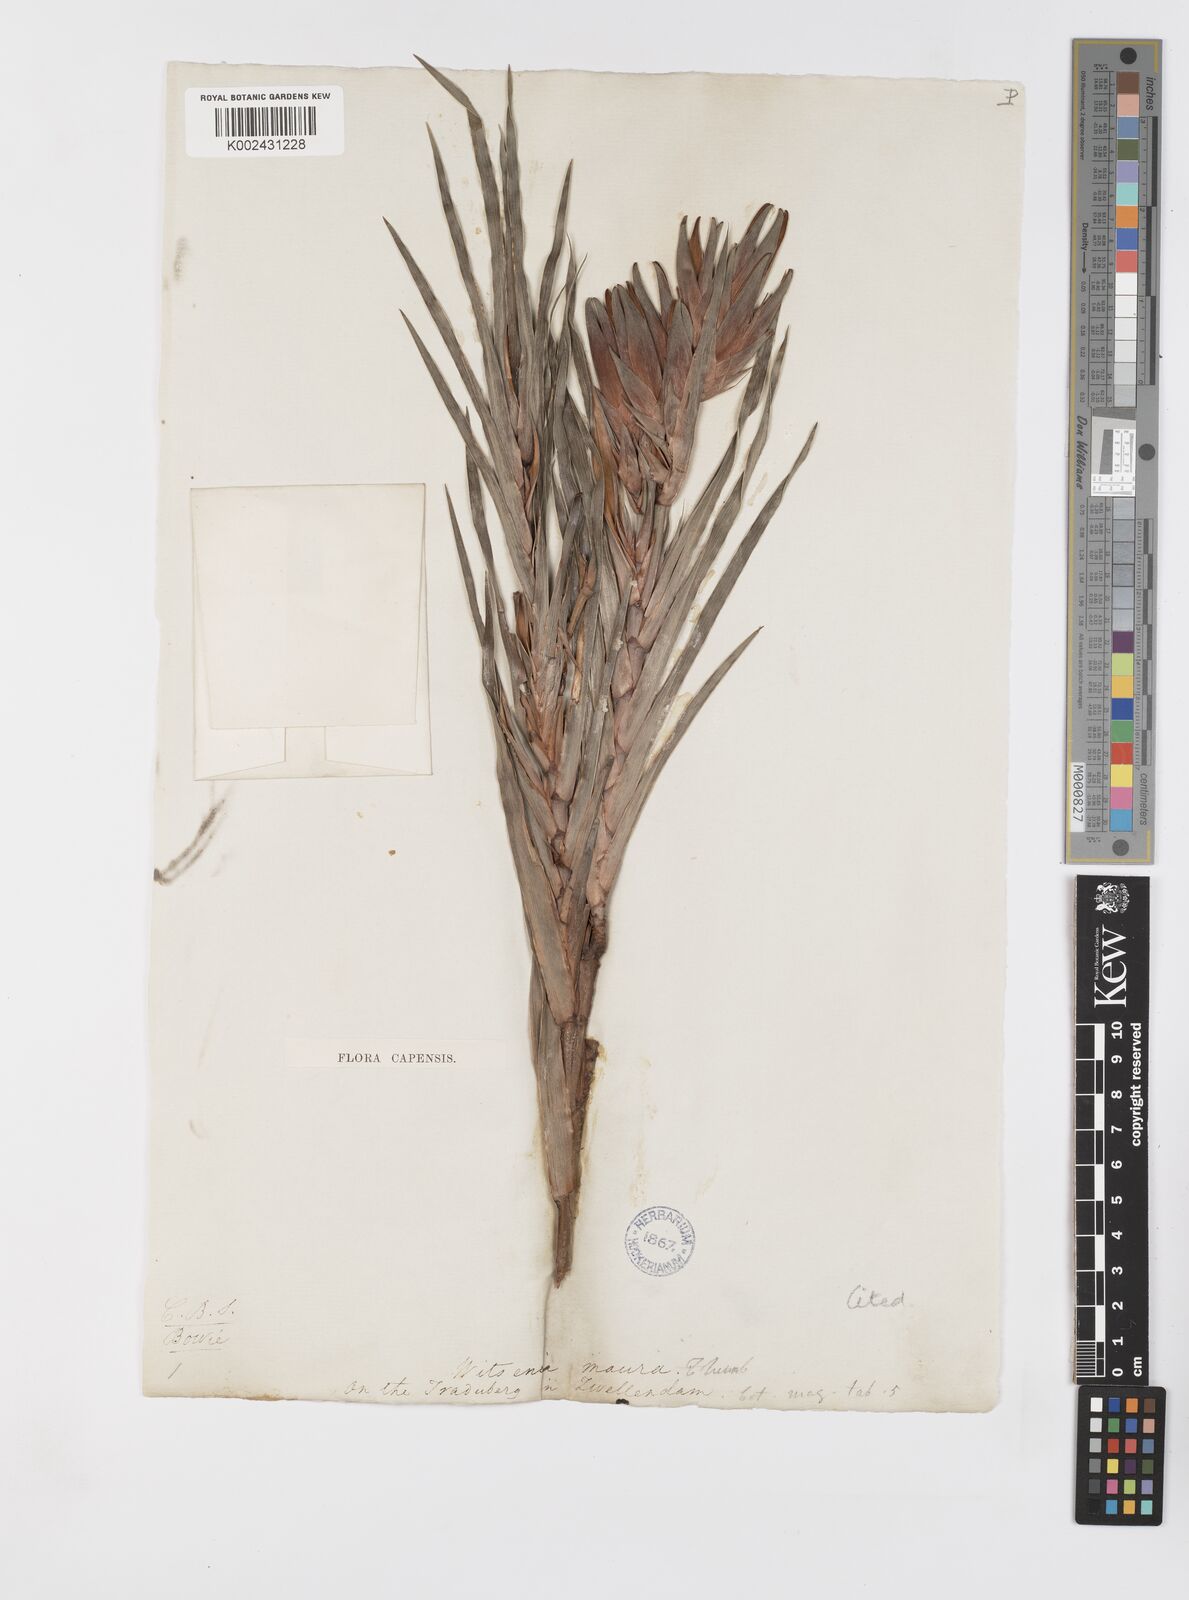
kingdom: Plantae
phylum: Tracheophyta
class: Liliopsida
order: Asparagales
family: Iridaceae
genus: Witsenia
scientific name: Witsenia maura
